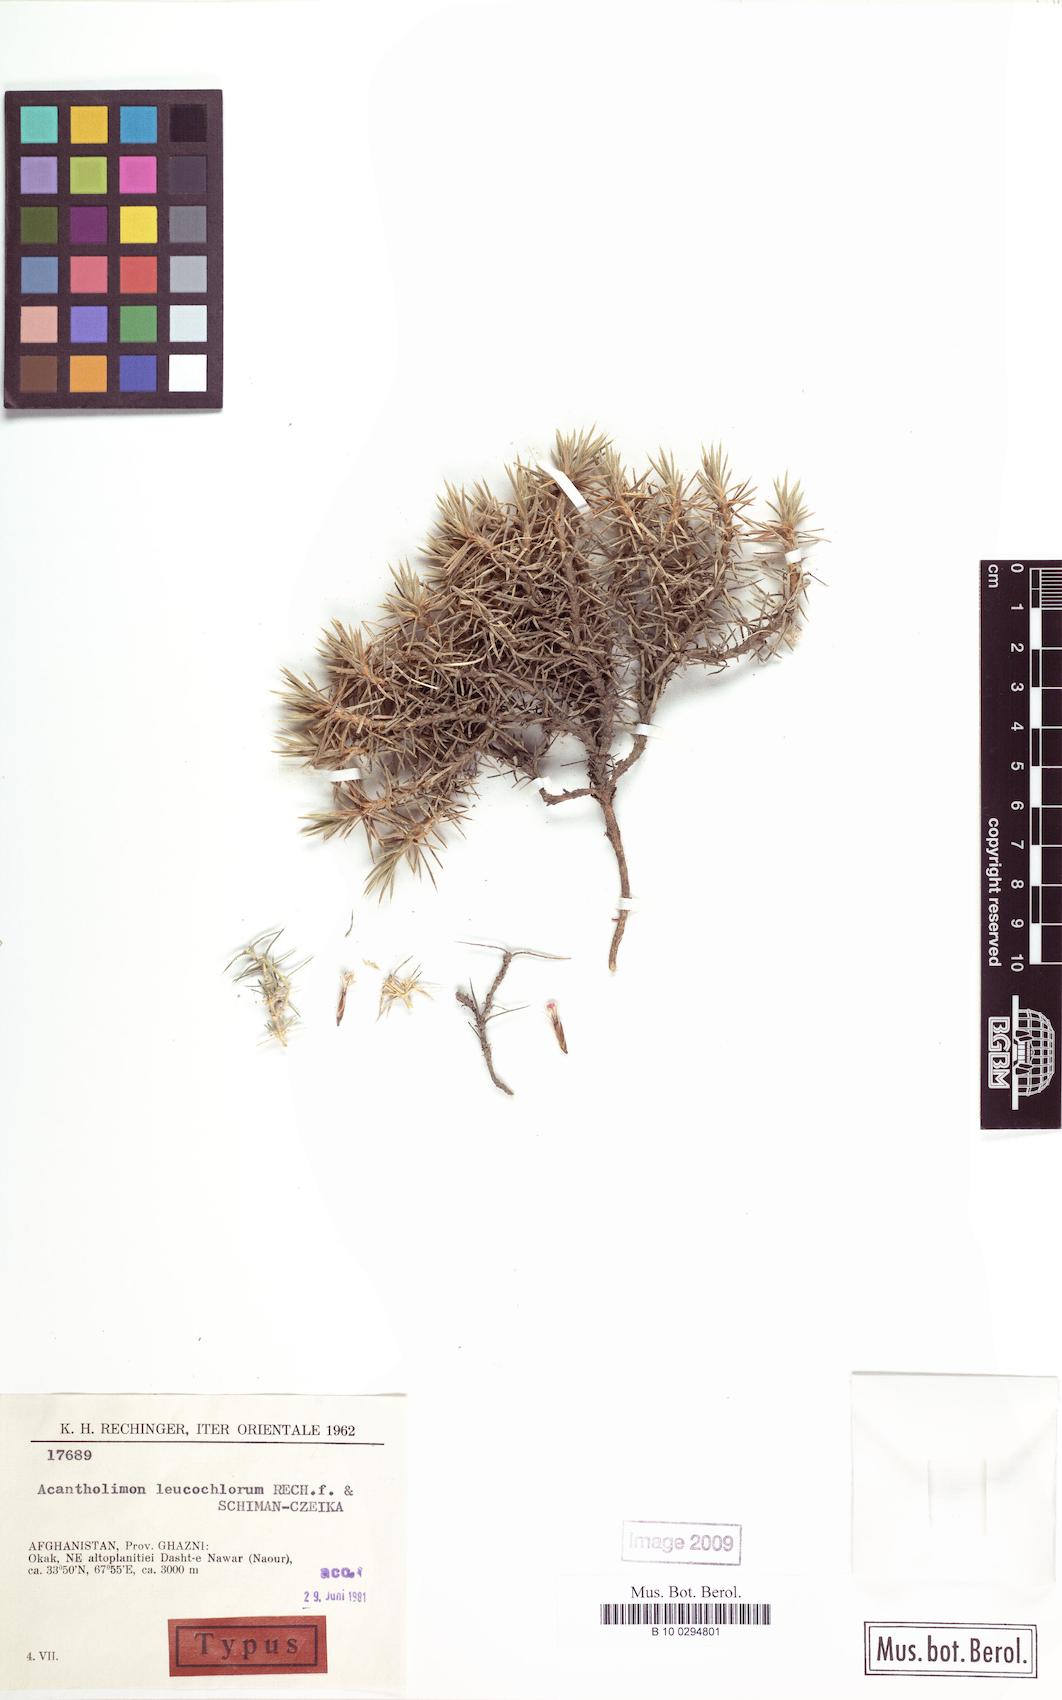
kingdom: Plantae
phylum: Tracheophyta
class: Magnoliopsida
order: Caryophyllales
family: Plumbaginaceae
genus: Acantholimon
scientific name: Acantholimon leucochlorum
